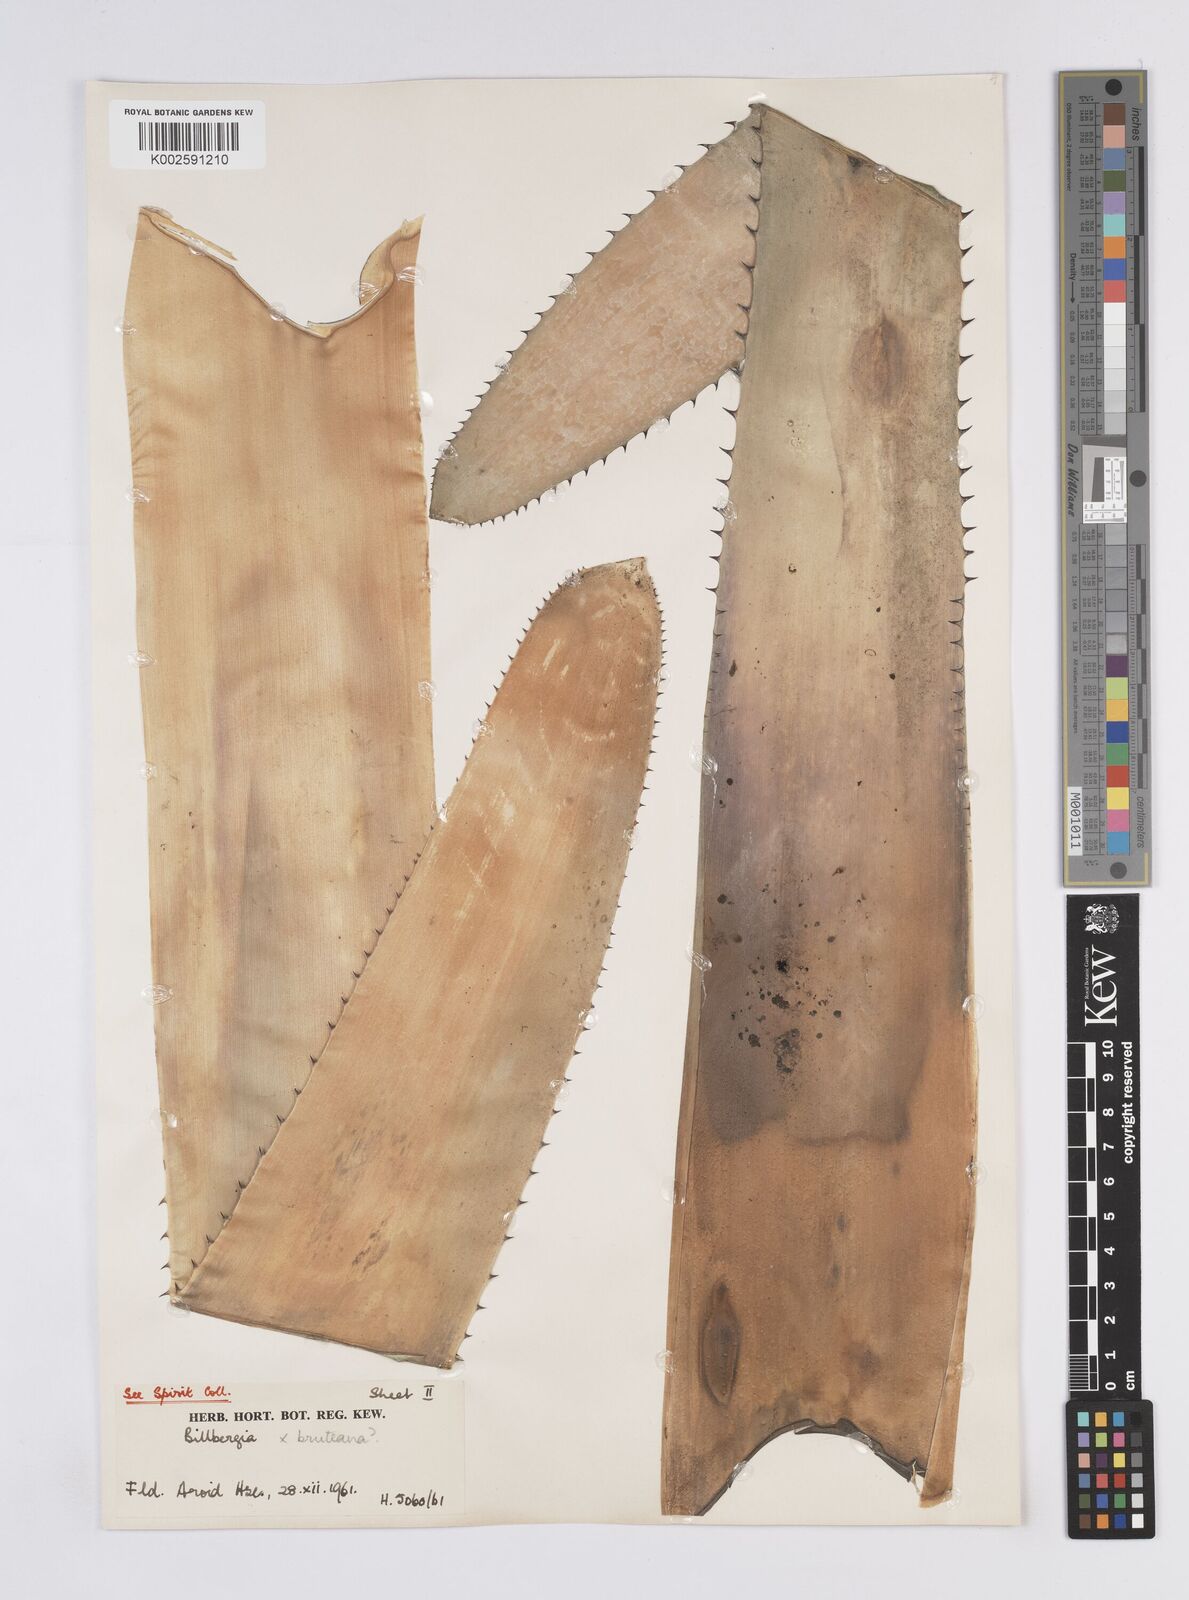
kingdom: Plantae
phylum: Tracheophyta
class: Liliopsida
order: Poales
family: Bromeliaceae
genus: Billbergia
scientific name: Billbergia vittata
